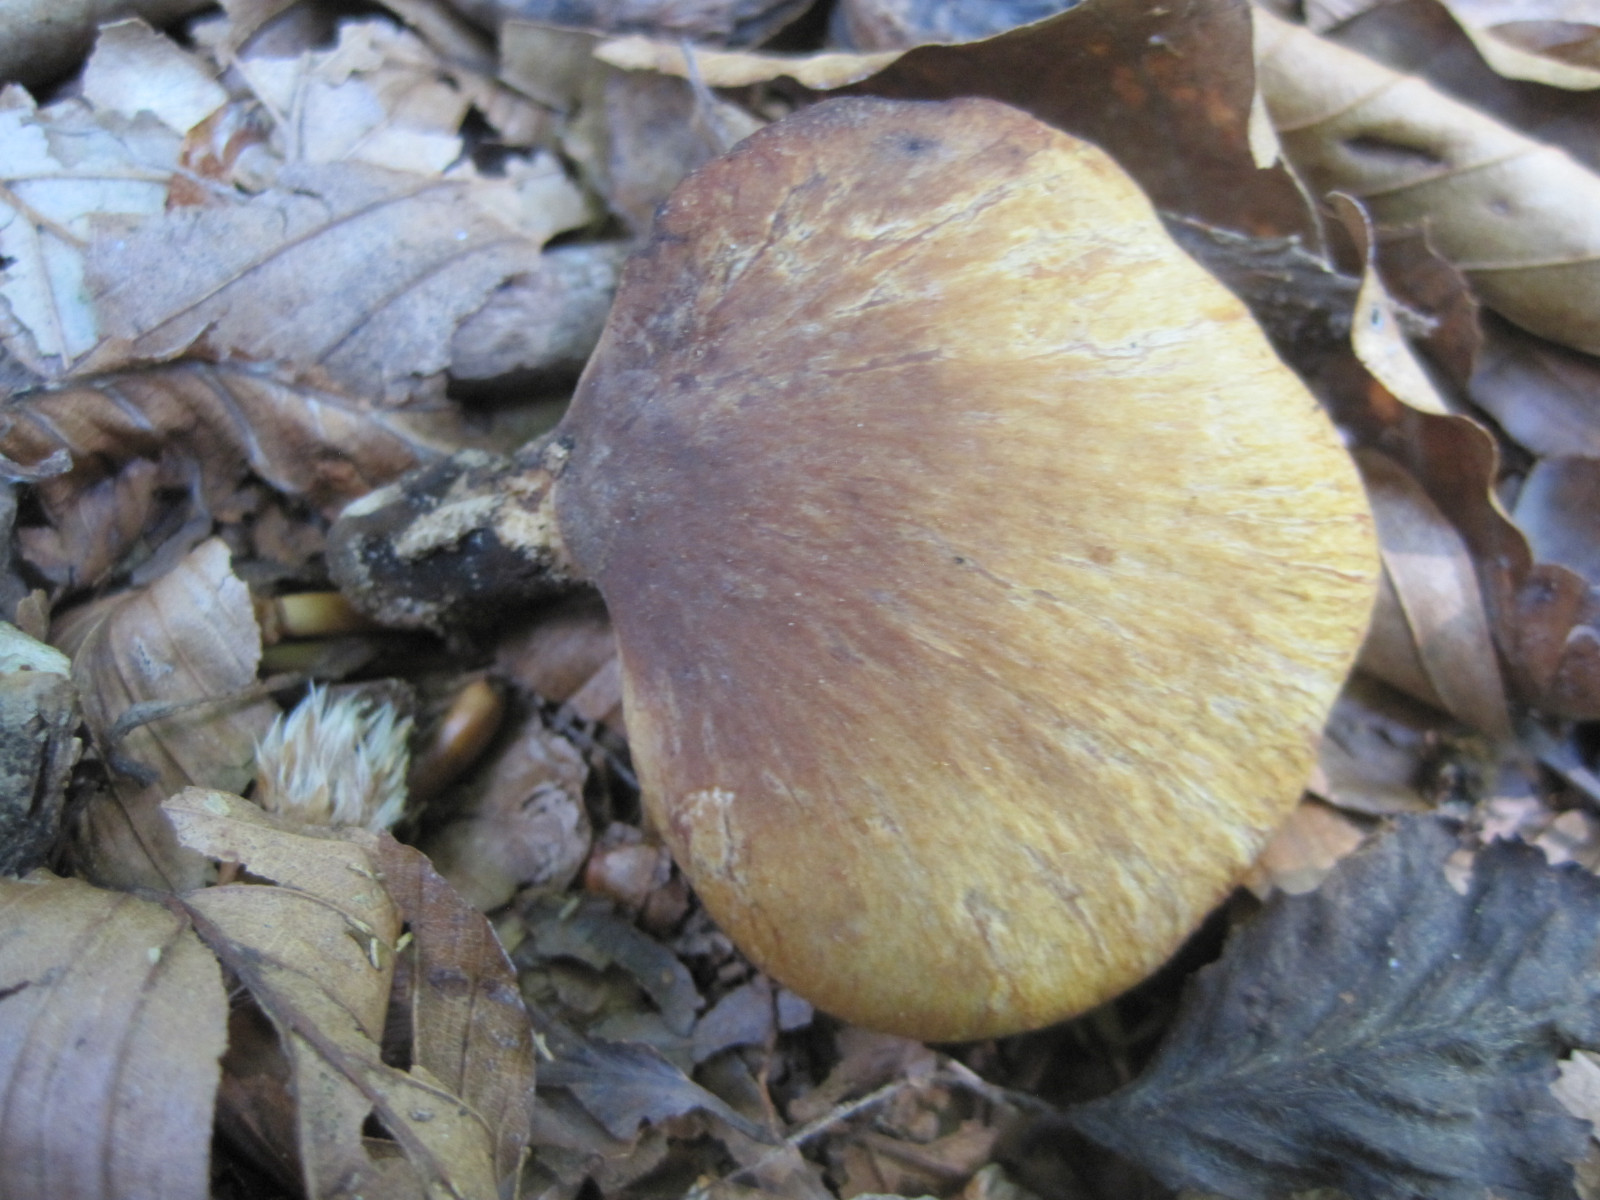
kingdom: Fungi
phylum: Basidiomycota
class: Agaricomycetes
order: Polyporales
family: Polyporaceae
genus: Cerioporus
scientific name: Cerioporus varius
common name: foranderlig stilkporesvamp
